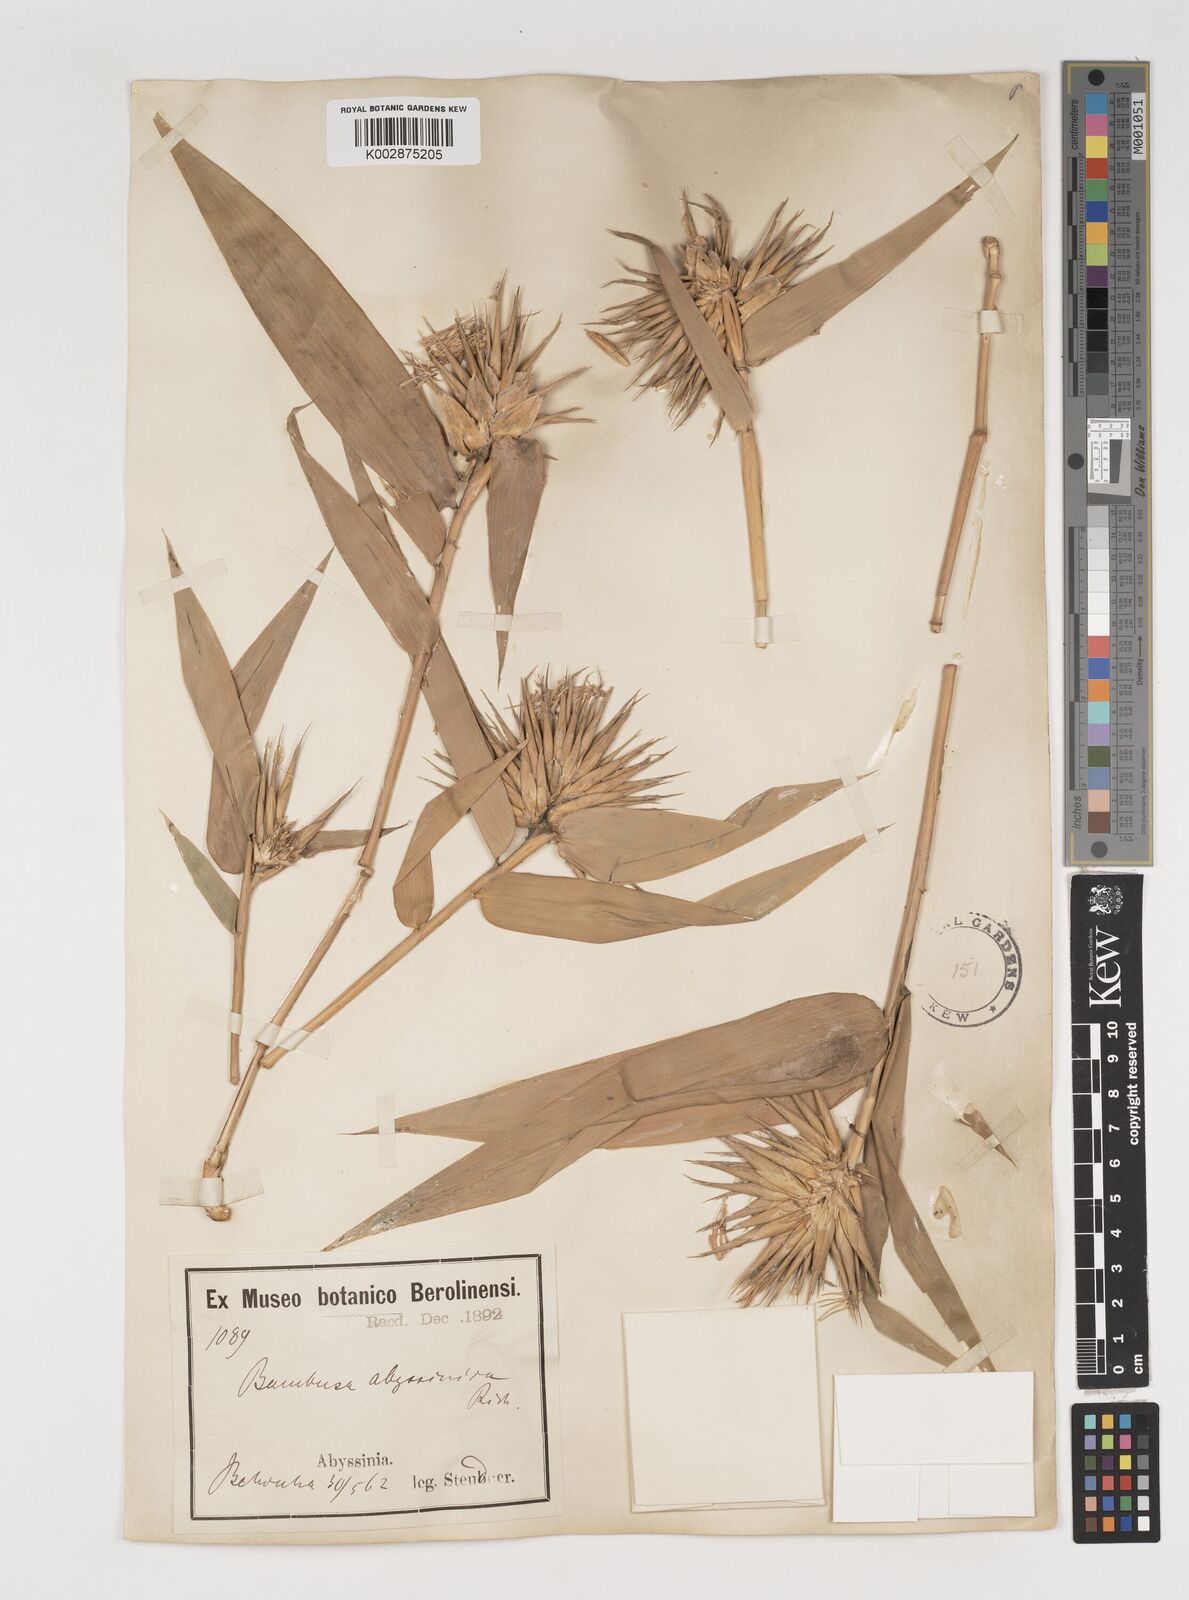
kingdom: Plantae
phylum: Tracheophyta
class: Liliopsida
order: Poales
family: Poaceae
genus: Oxytenanthera
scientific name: Oxytenanthera abyssinica
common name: Wine bamboo
